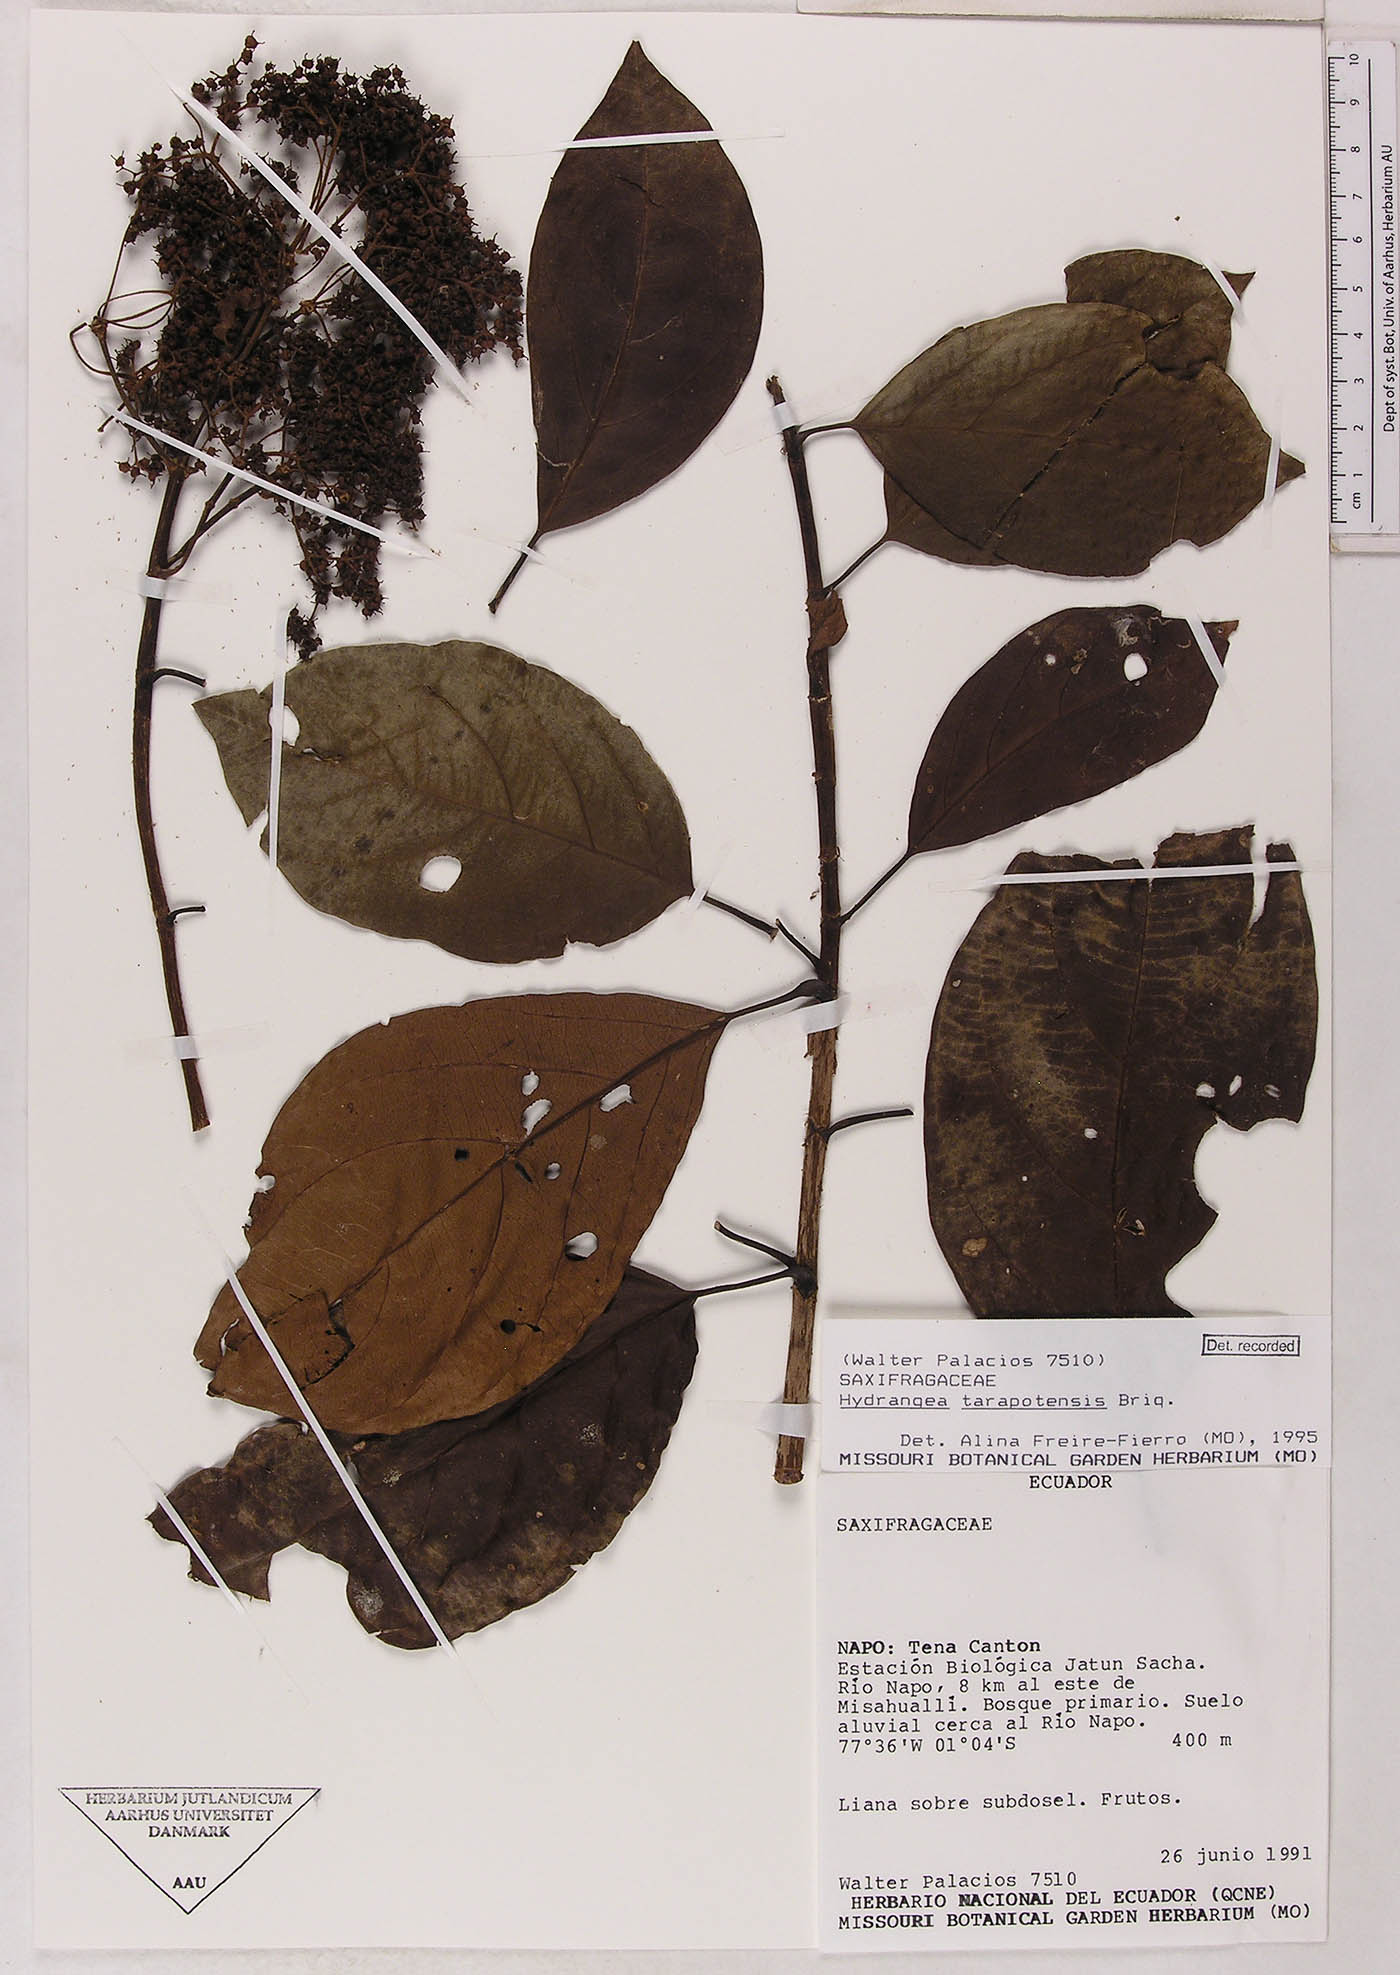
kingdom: Plantae
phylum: Tracheophyta
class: Magnoliopsida
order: Cornales
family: Hydrangeaceae
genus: Hydrangea
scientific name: Hydrangea tarapotensis
